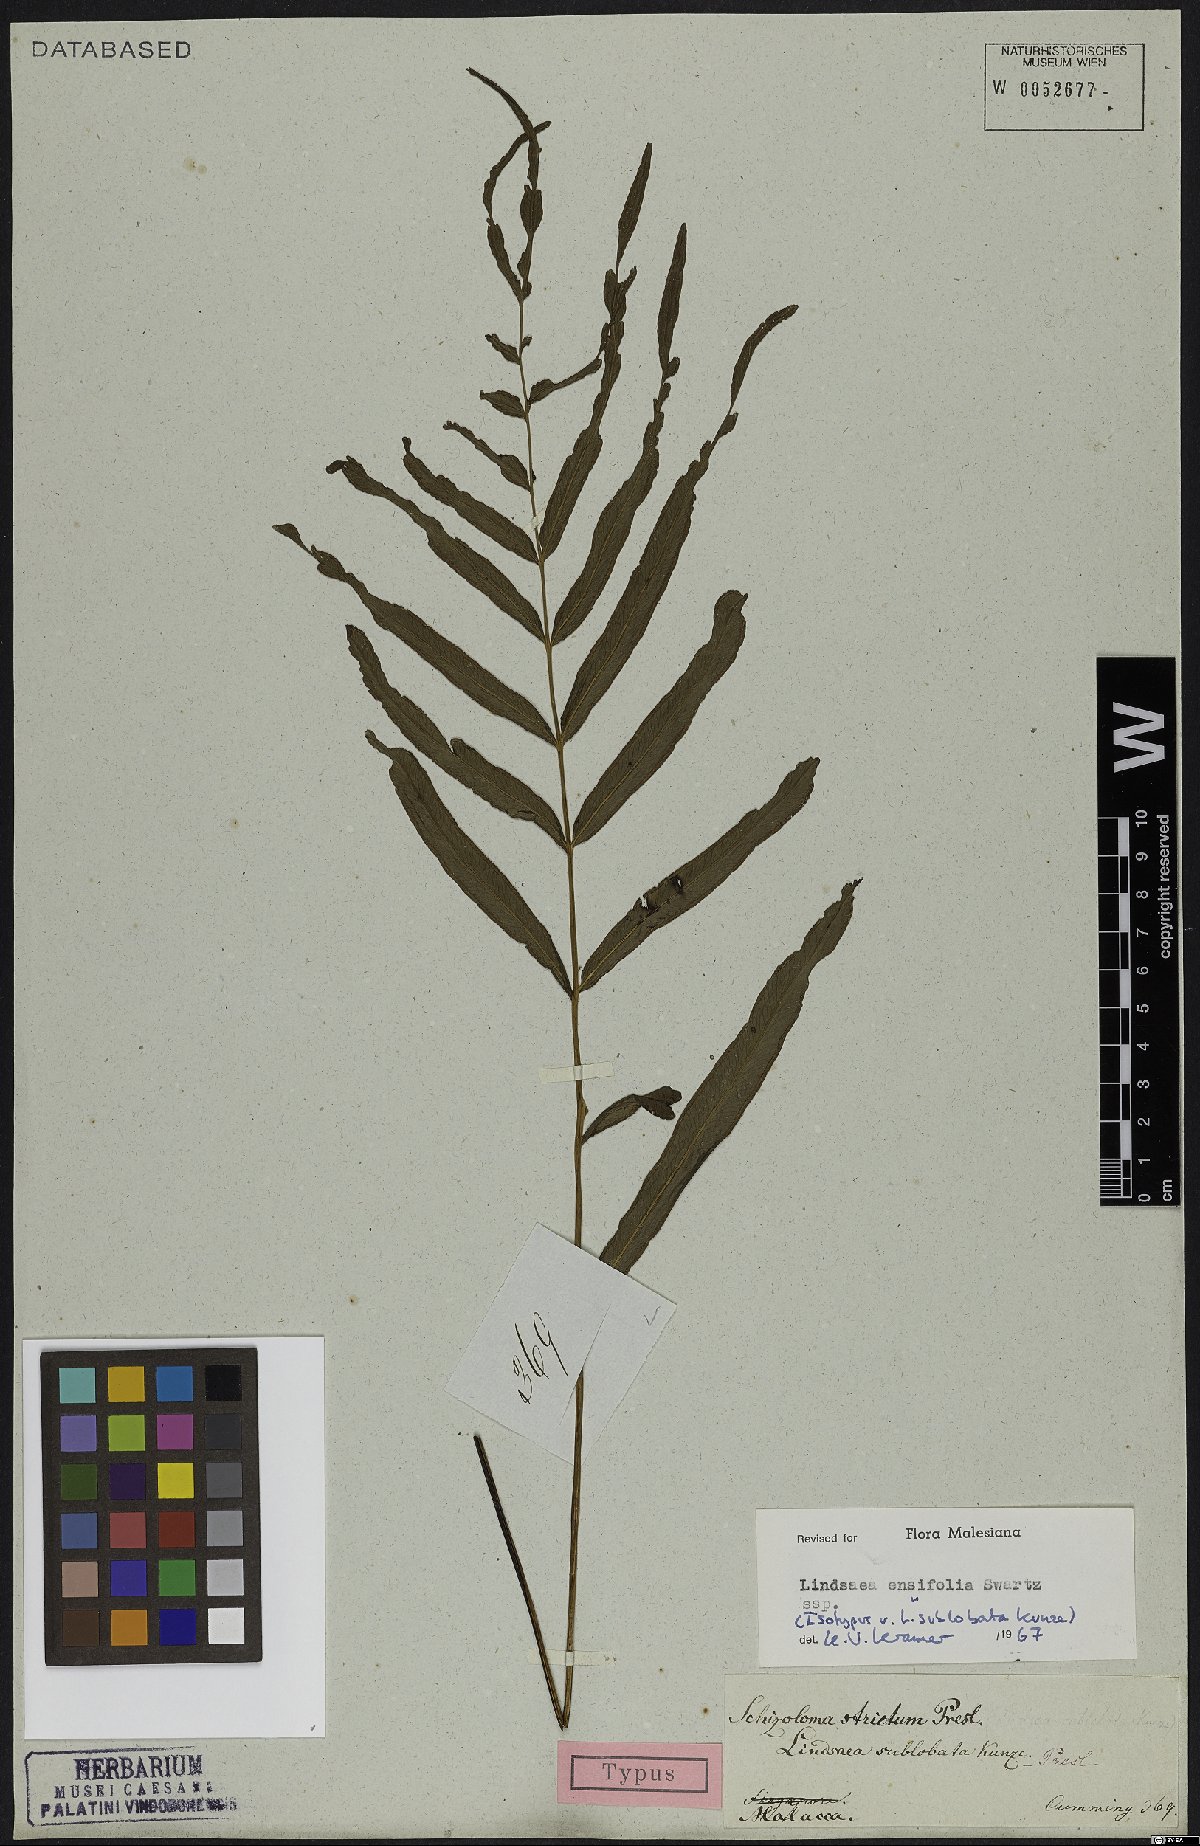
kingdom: Plantae
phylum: Tracheophyta
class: Polypodiopsida
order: Polypodiales
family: Lindsaeaceae
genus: Lindsaea
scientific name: Lindsaea ensifolia
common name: Graceful necklace fern
